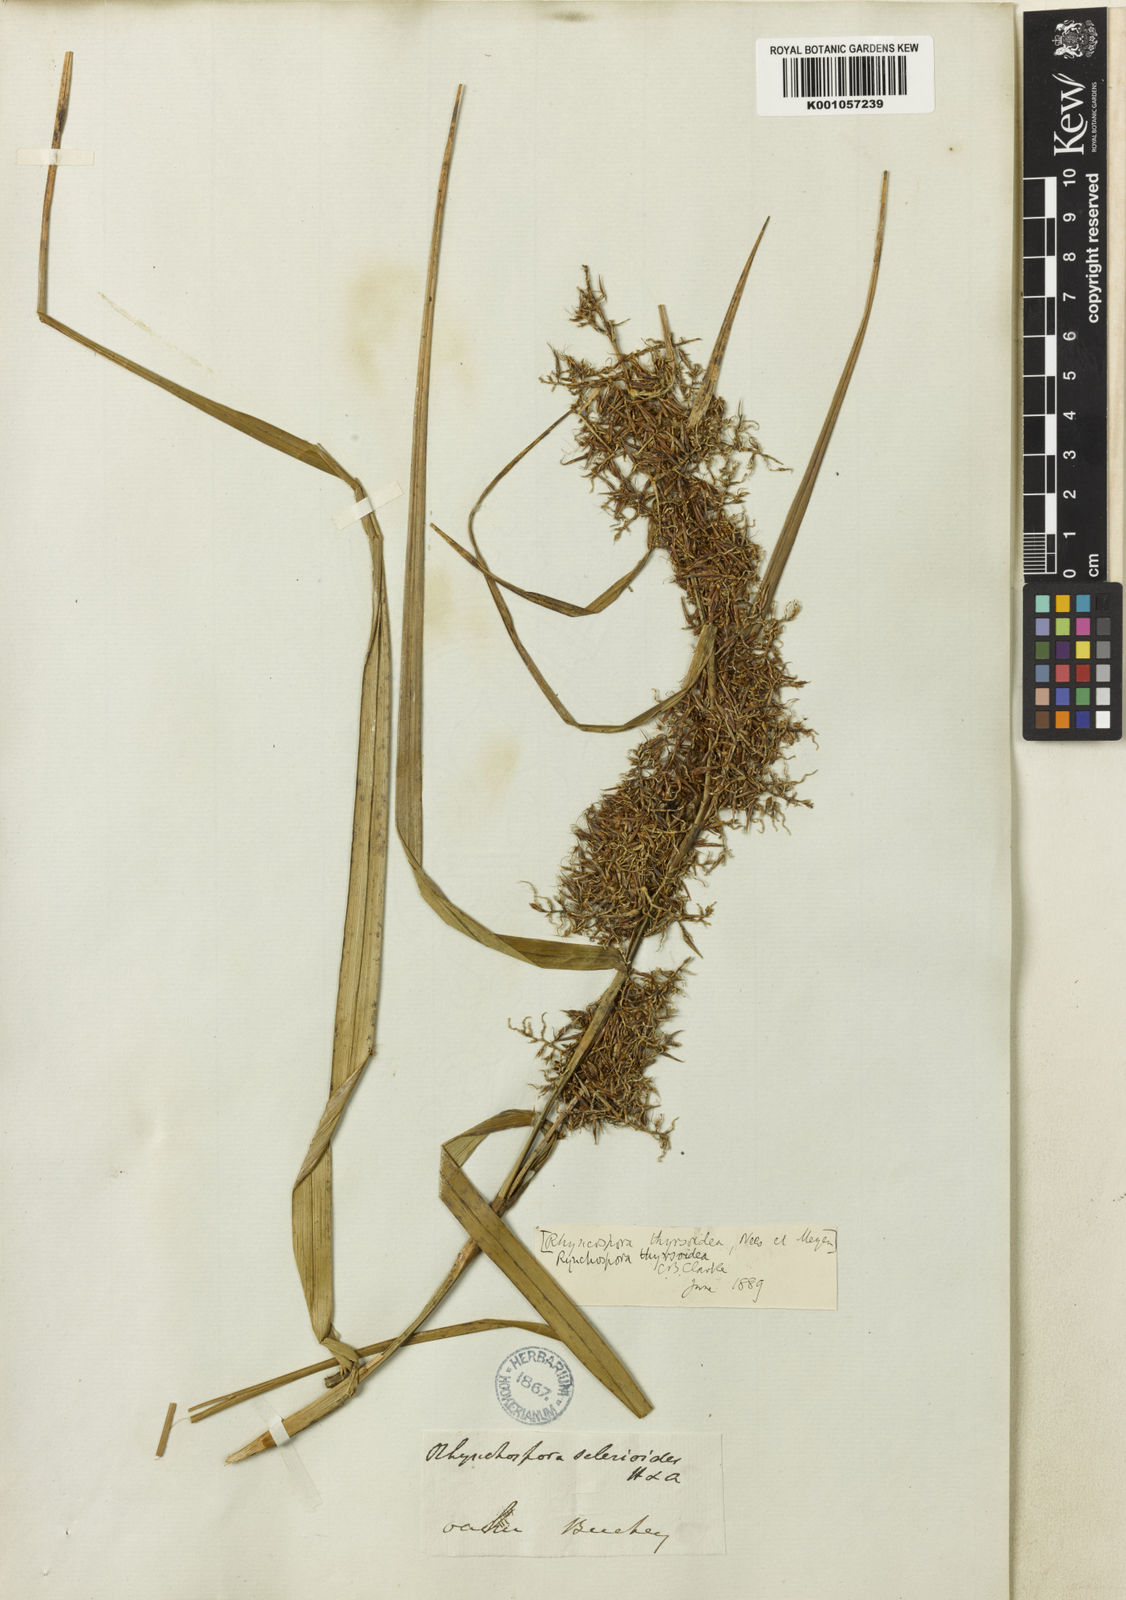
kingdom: Plantae
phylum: Tracheophyta
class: Liliopsida
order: Poales
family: Cyperaceae
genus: Rhynchospora
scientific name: Rhynchospora sclerioides
